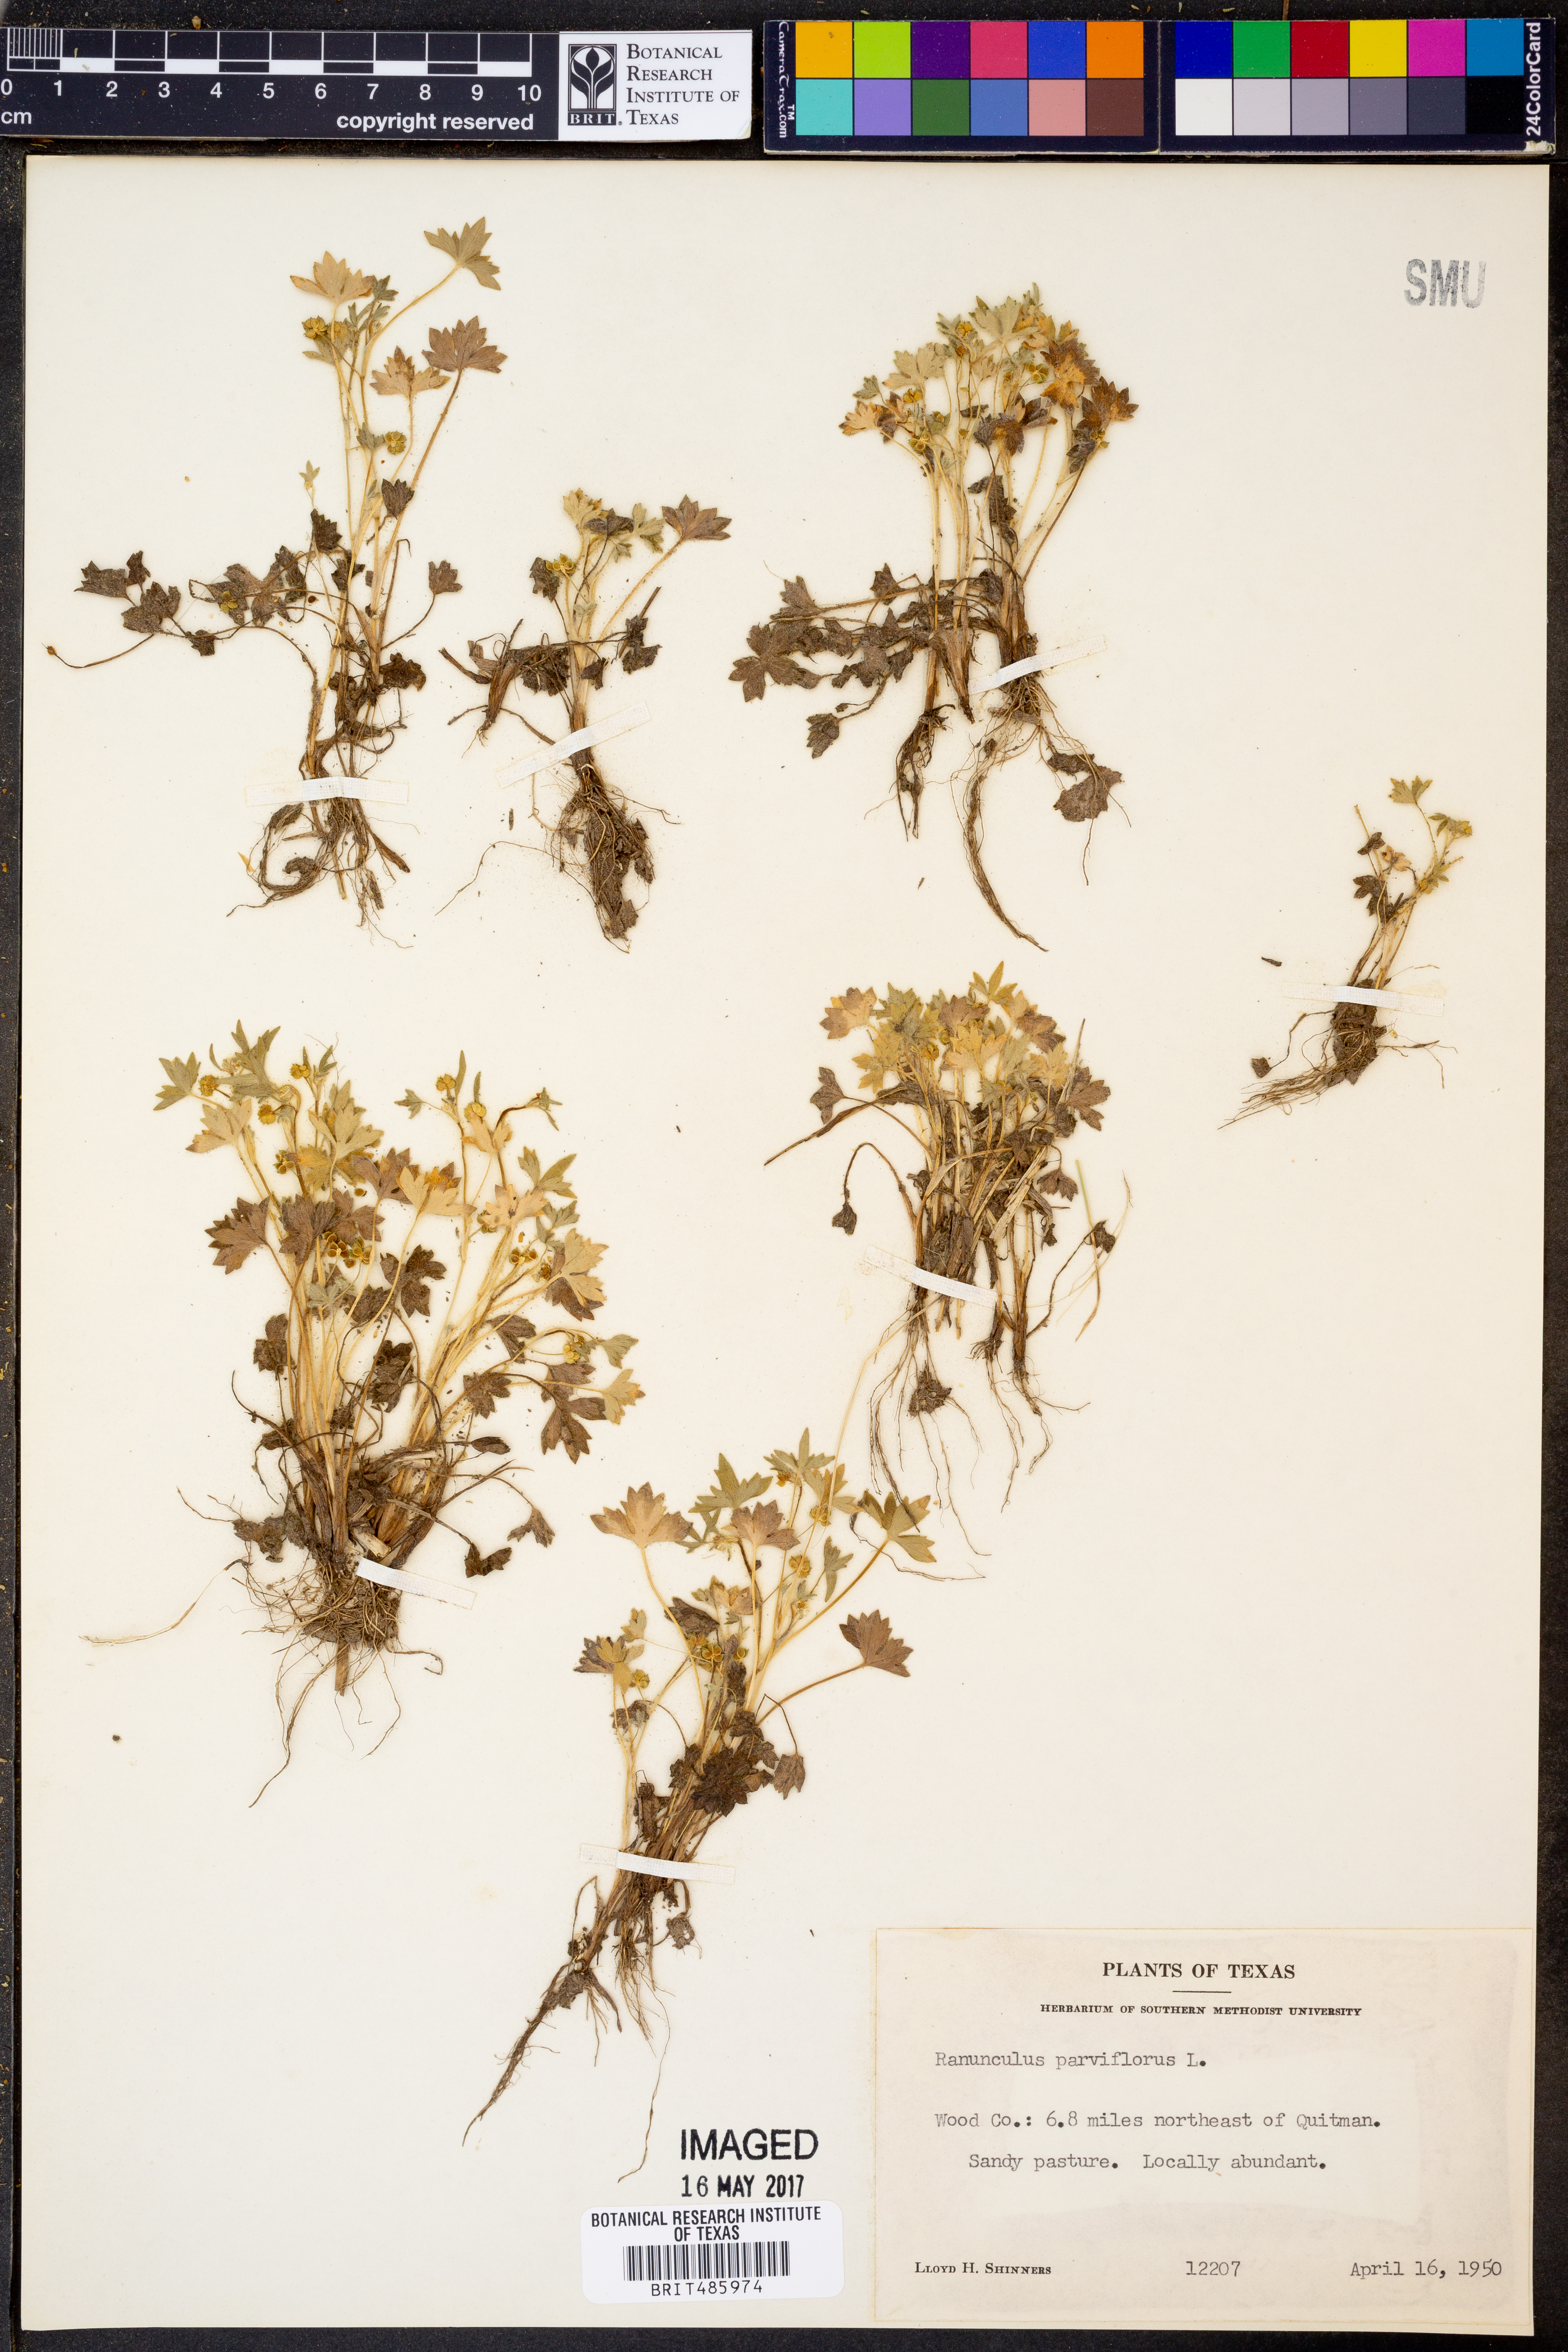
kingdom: Plantae
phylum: Tracheophyta
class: Magnoliopsida
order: Ranunculales
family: Ranunculaceae
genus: Ranunculus
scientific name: Ranunculus parviflorus
